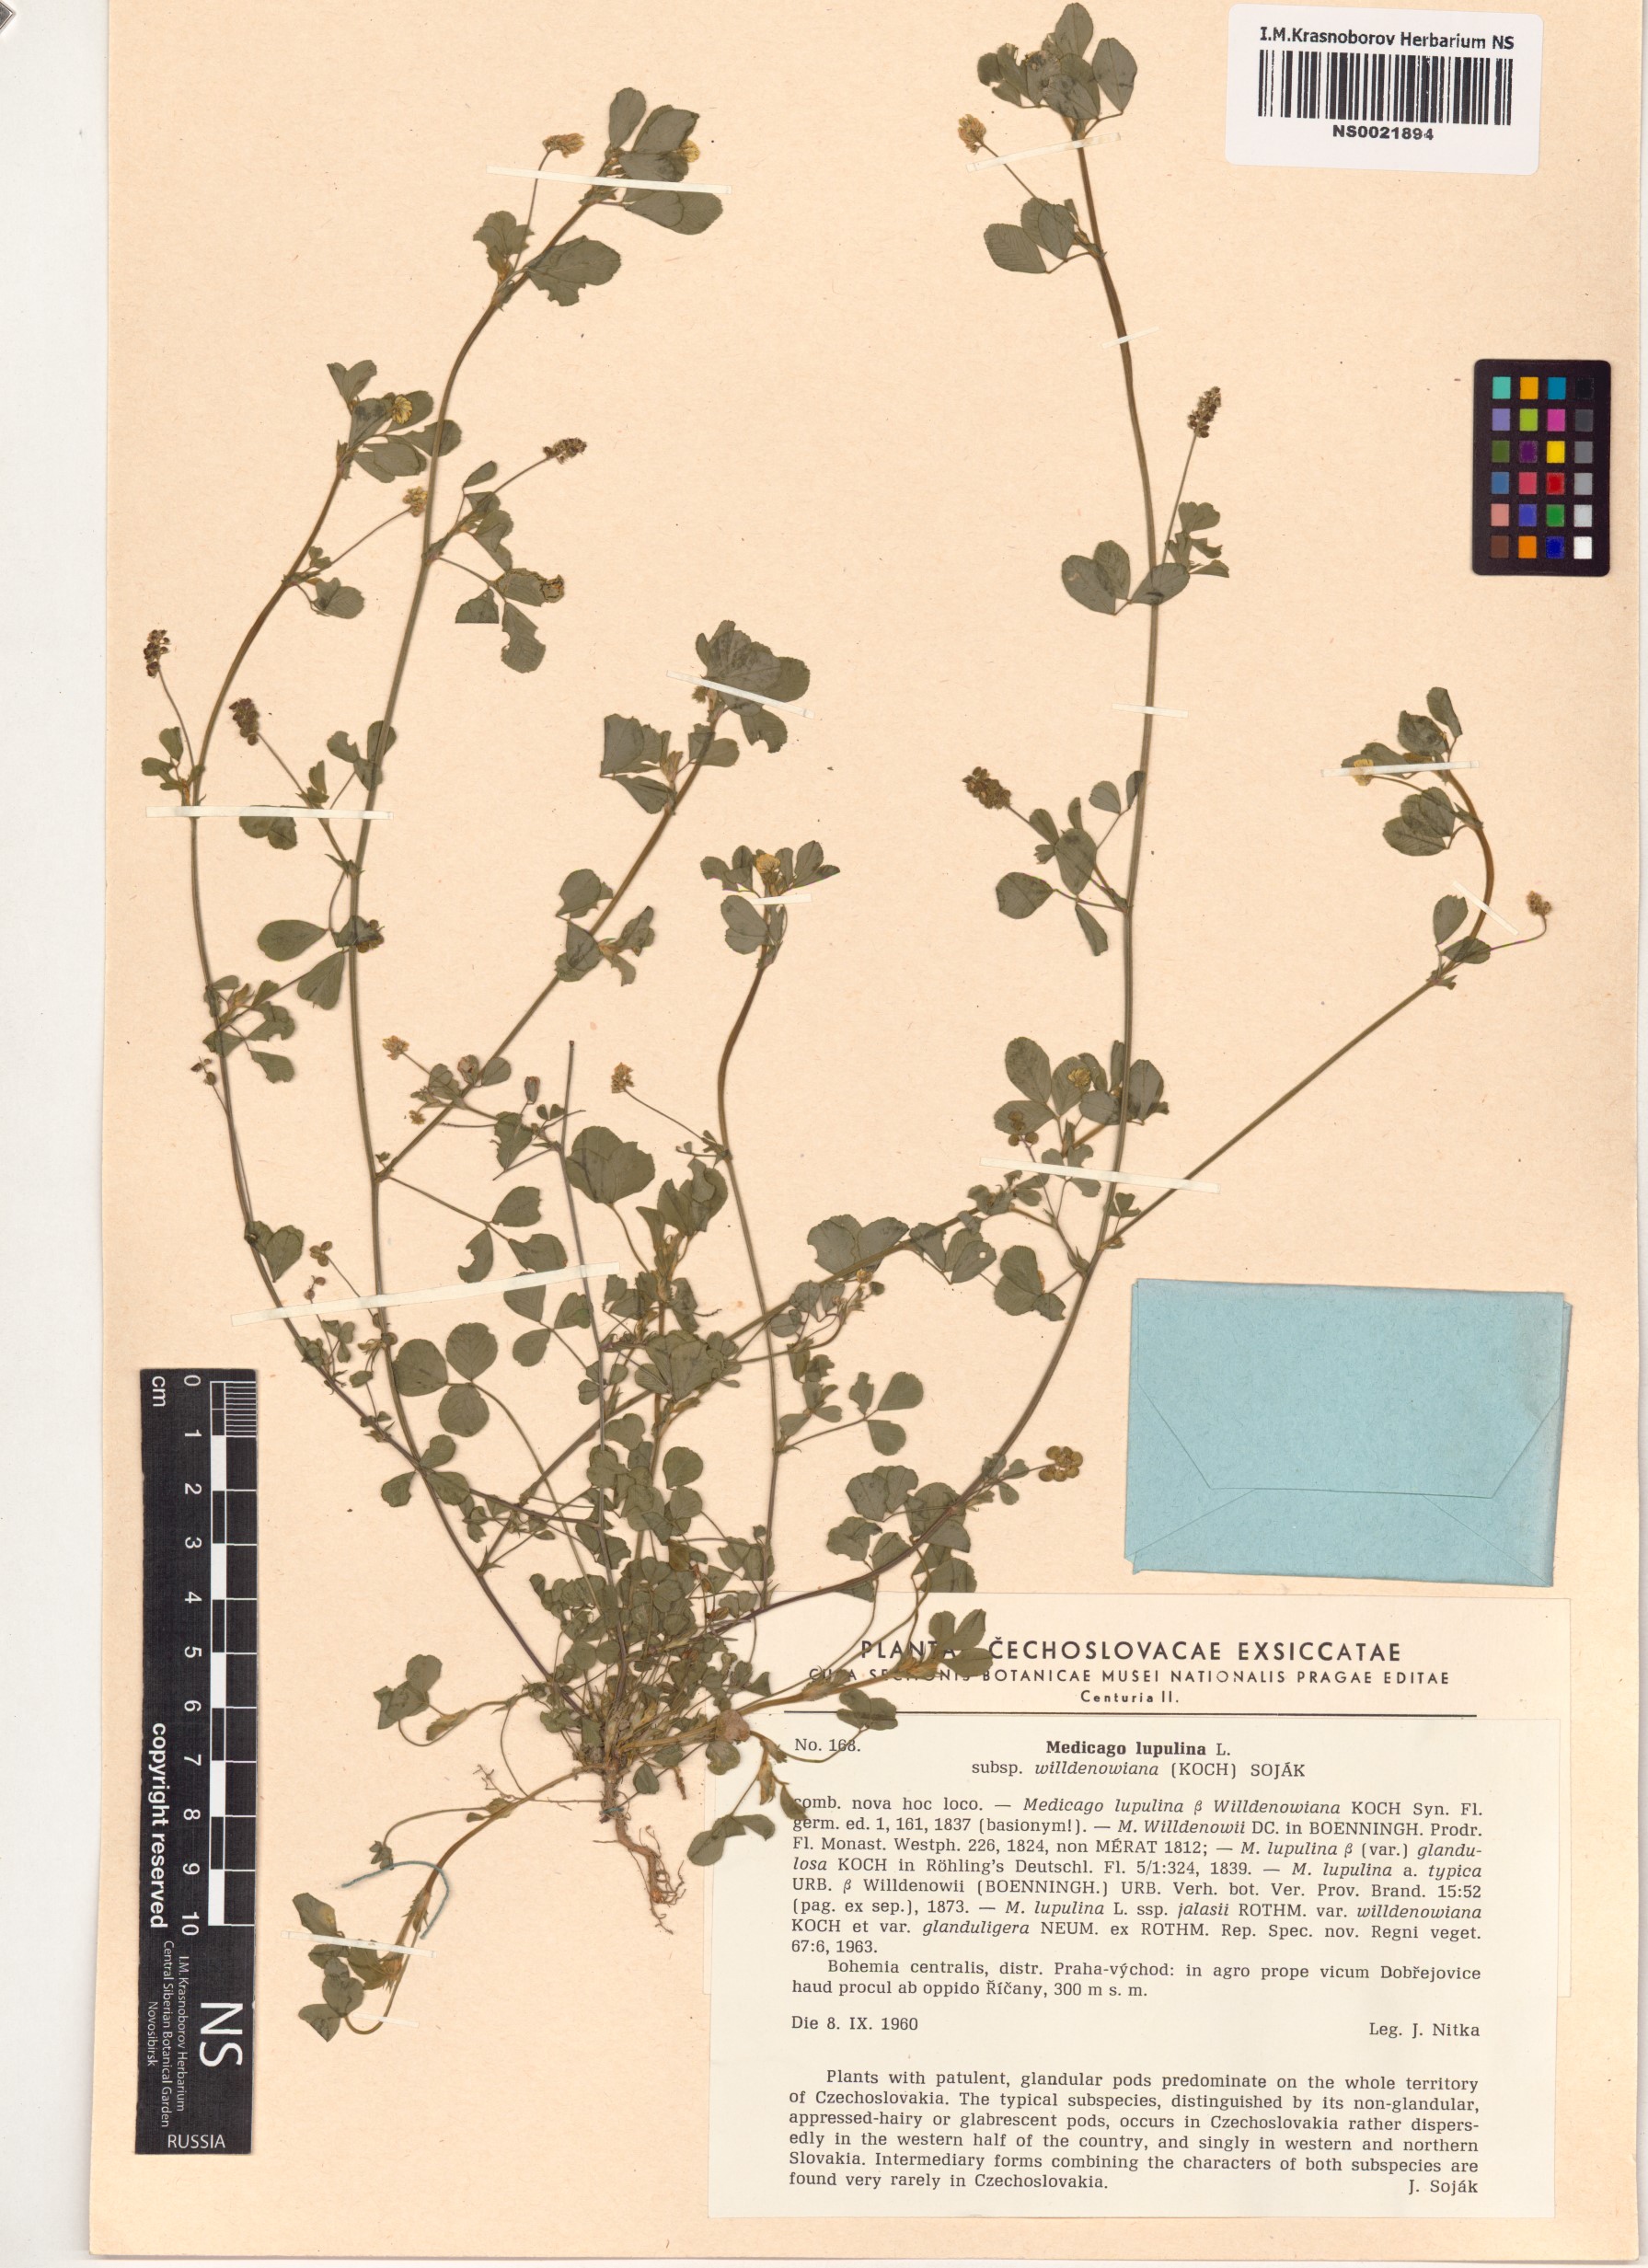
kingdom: Plantae
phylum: Tracheophyta
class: Magnoliopsida
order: Fabales
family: Fabaceae
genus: Medicago
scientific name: Medicago lupulina
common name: Black medick
